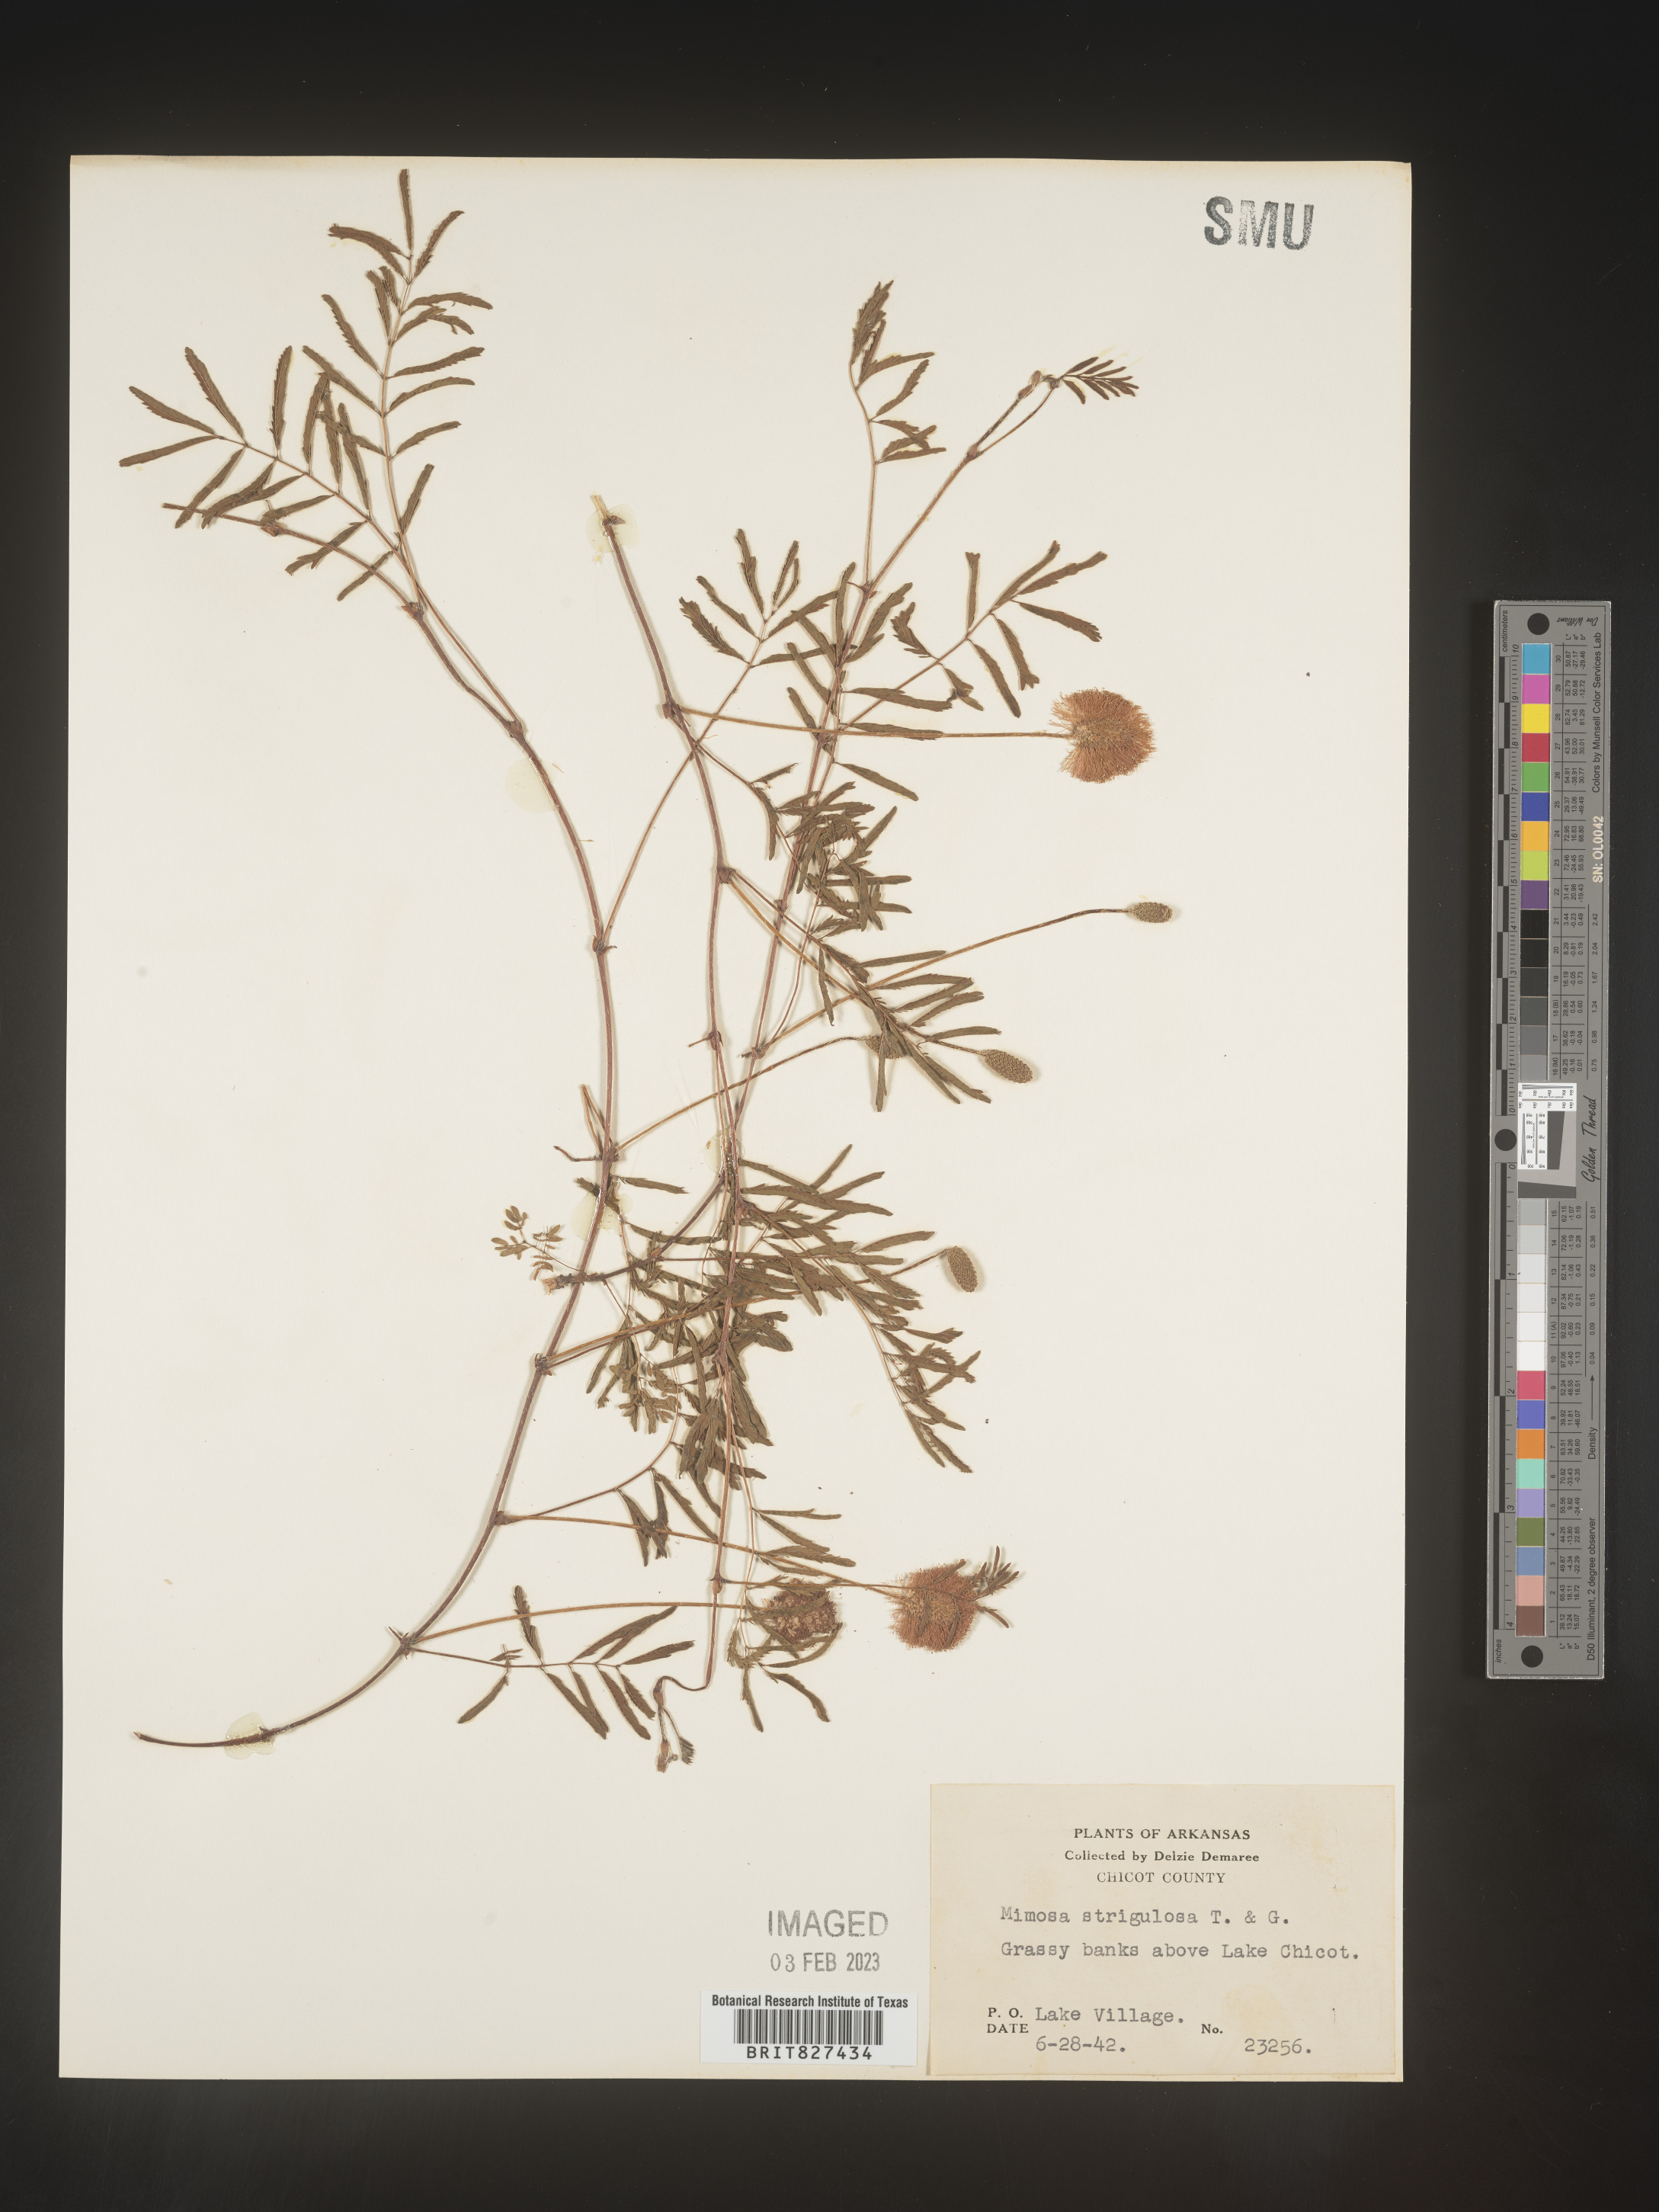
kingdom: Plantae
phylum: Tracheophyta
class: Magnoliopsida
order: Fabales
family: Fabaceae
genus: Mimosa
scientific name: Mimosa strigillosa
